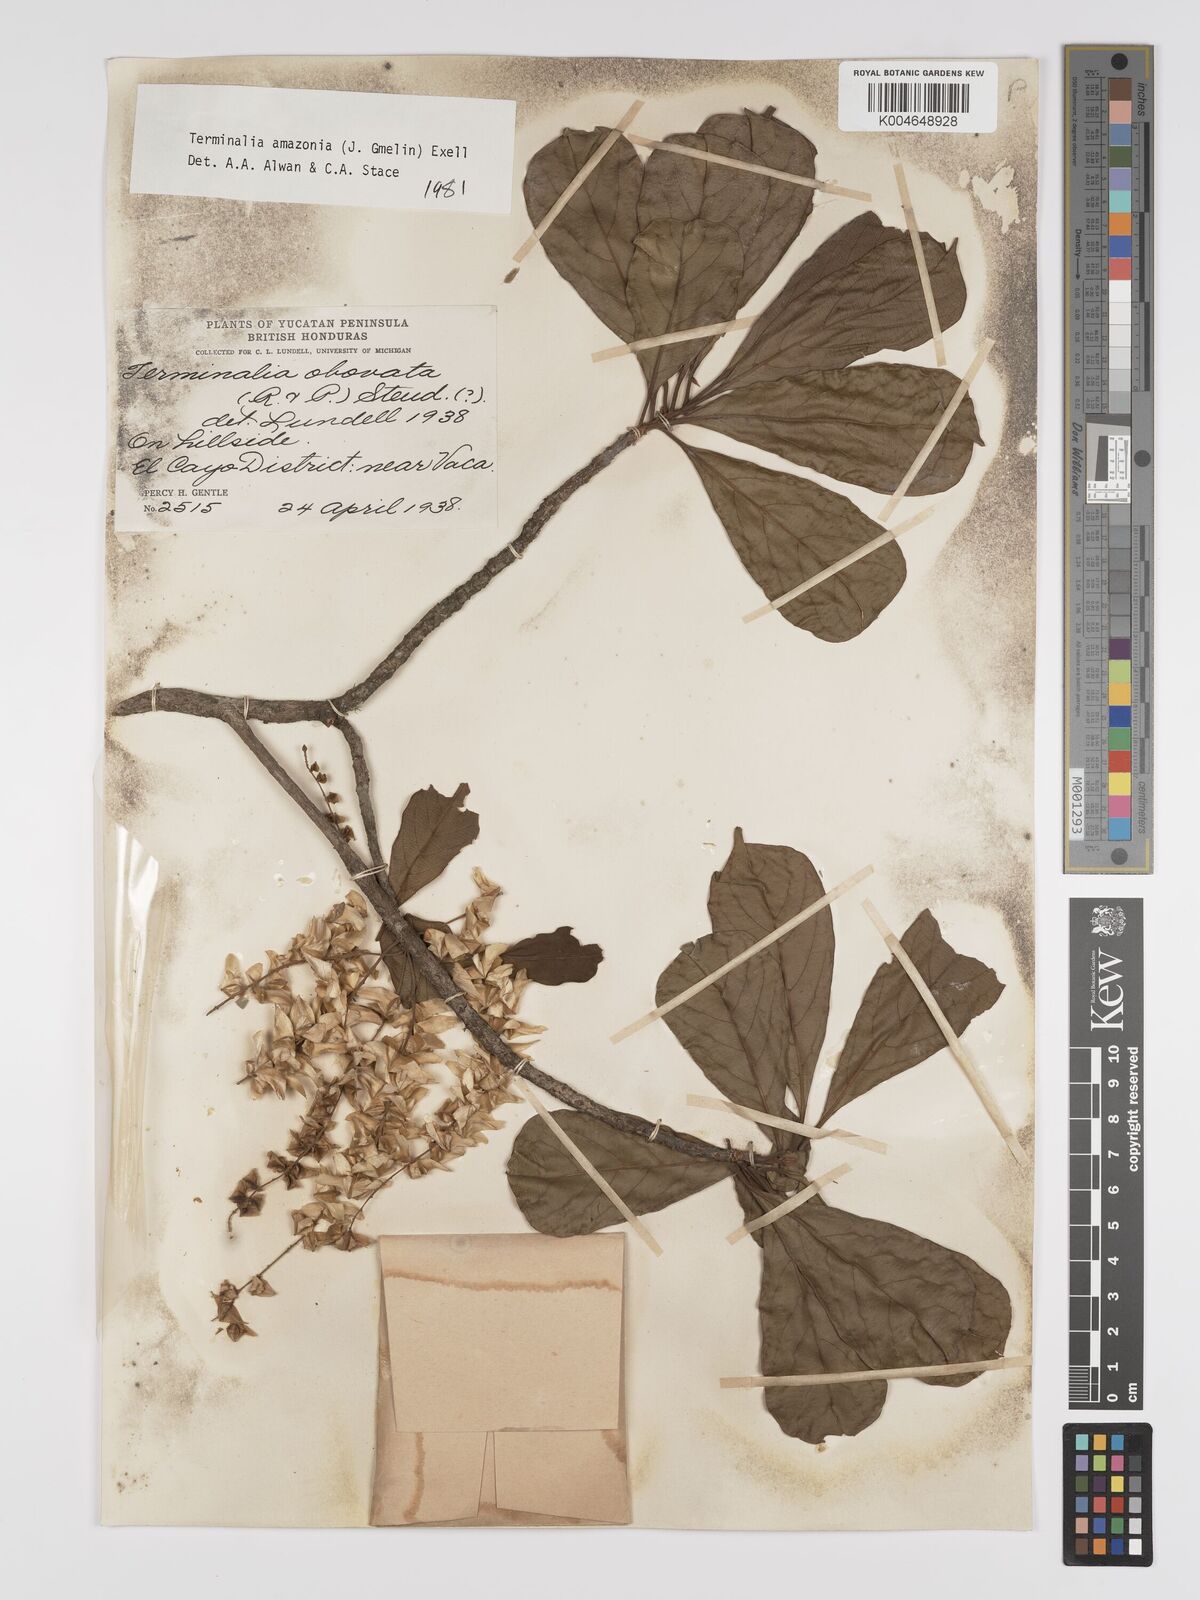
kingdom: Plantae
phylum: Tracheophyta
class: Magnoliopsida
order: Myrtales
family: Combretaceae
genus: Terminalia
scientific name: Terminalia amazonica
